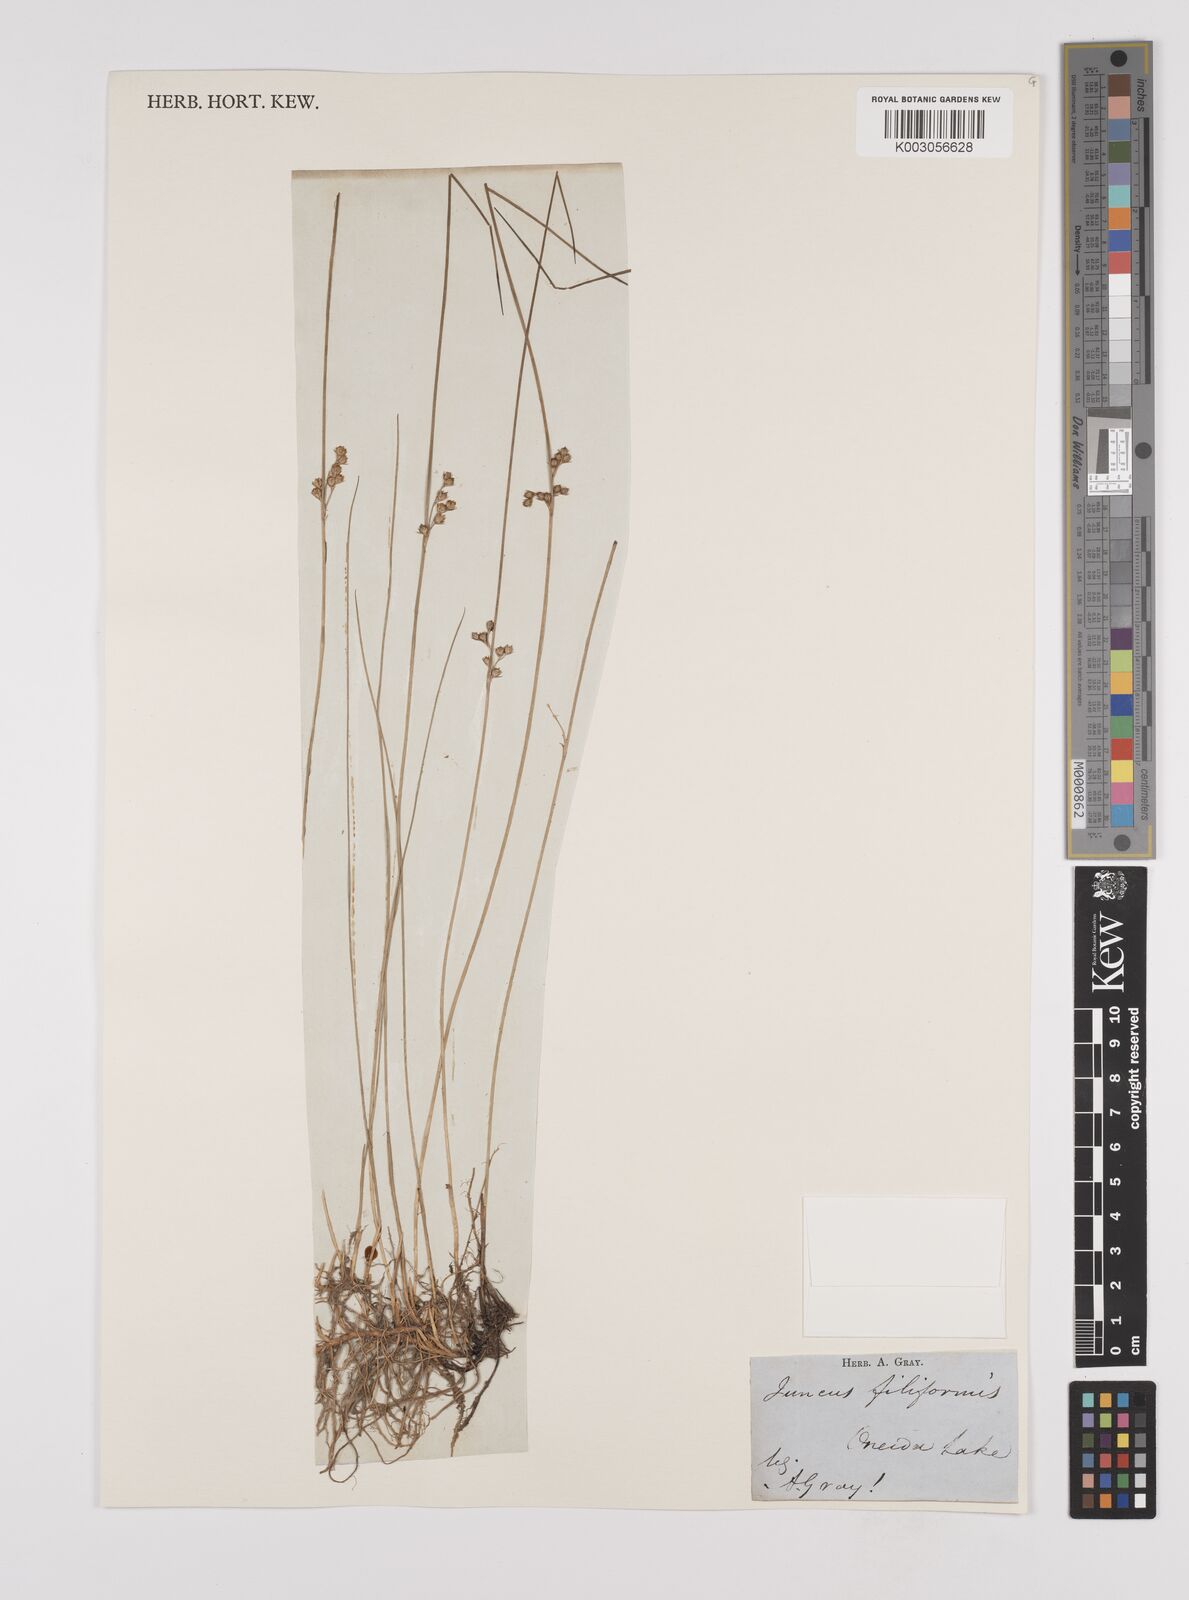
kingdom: Plantae
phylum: Tracheophyta
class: Liliopsida
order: Poales
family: Juncaceae
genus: Juncus
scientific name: Juncus filiformis
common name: Thread rush
